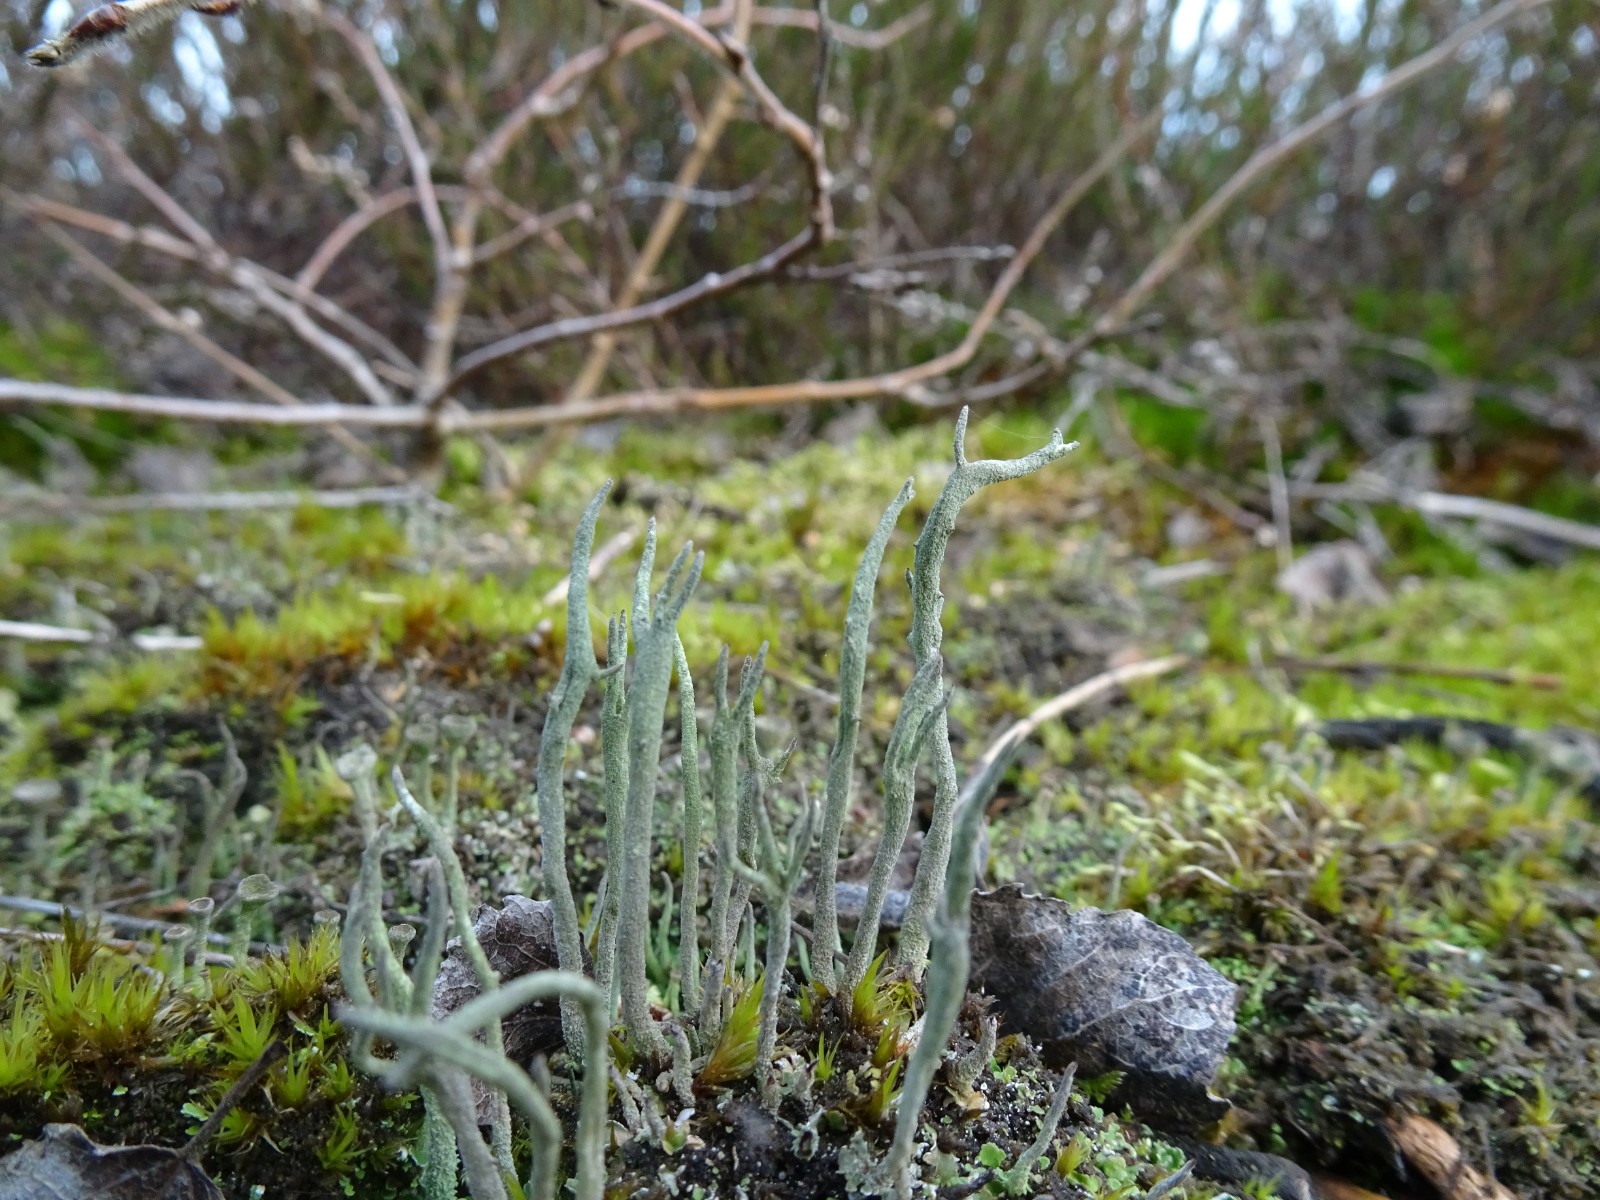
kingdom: Fungi
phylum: Ascomycota
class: Lecanoromycetes
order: Lecanorales
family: Cladoniaceae
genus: Cladonia
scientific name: Cladonia subulata
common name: spids bægerlav
